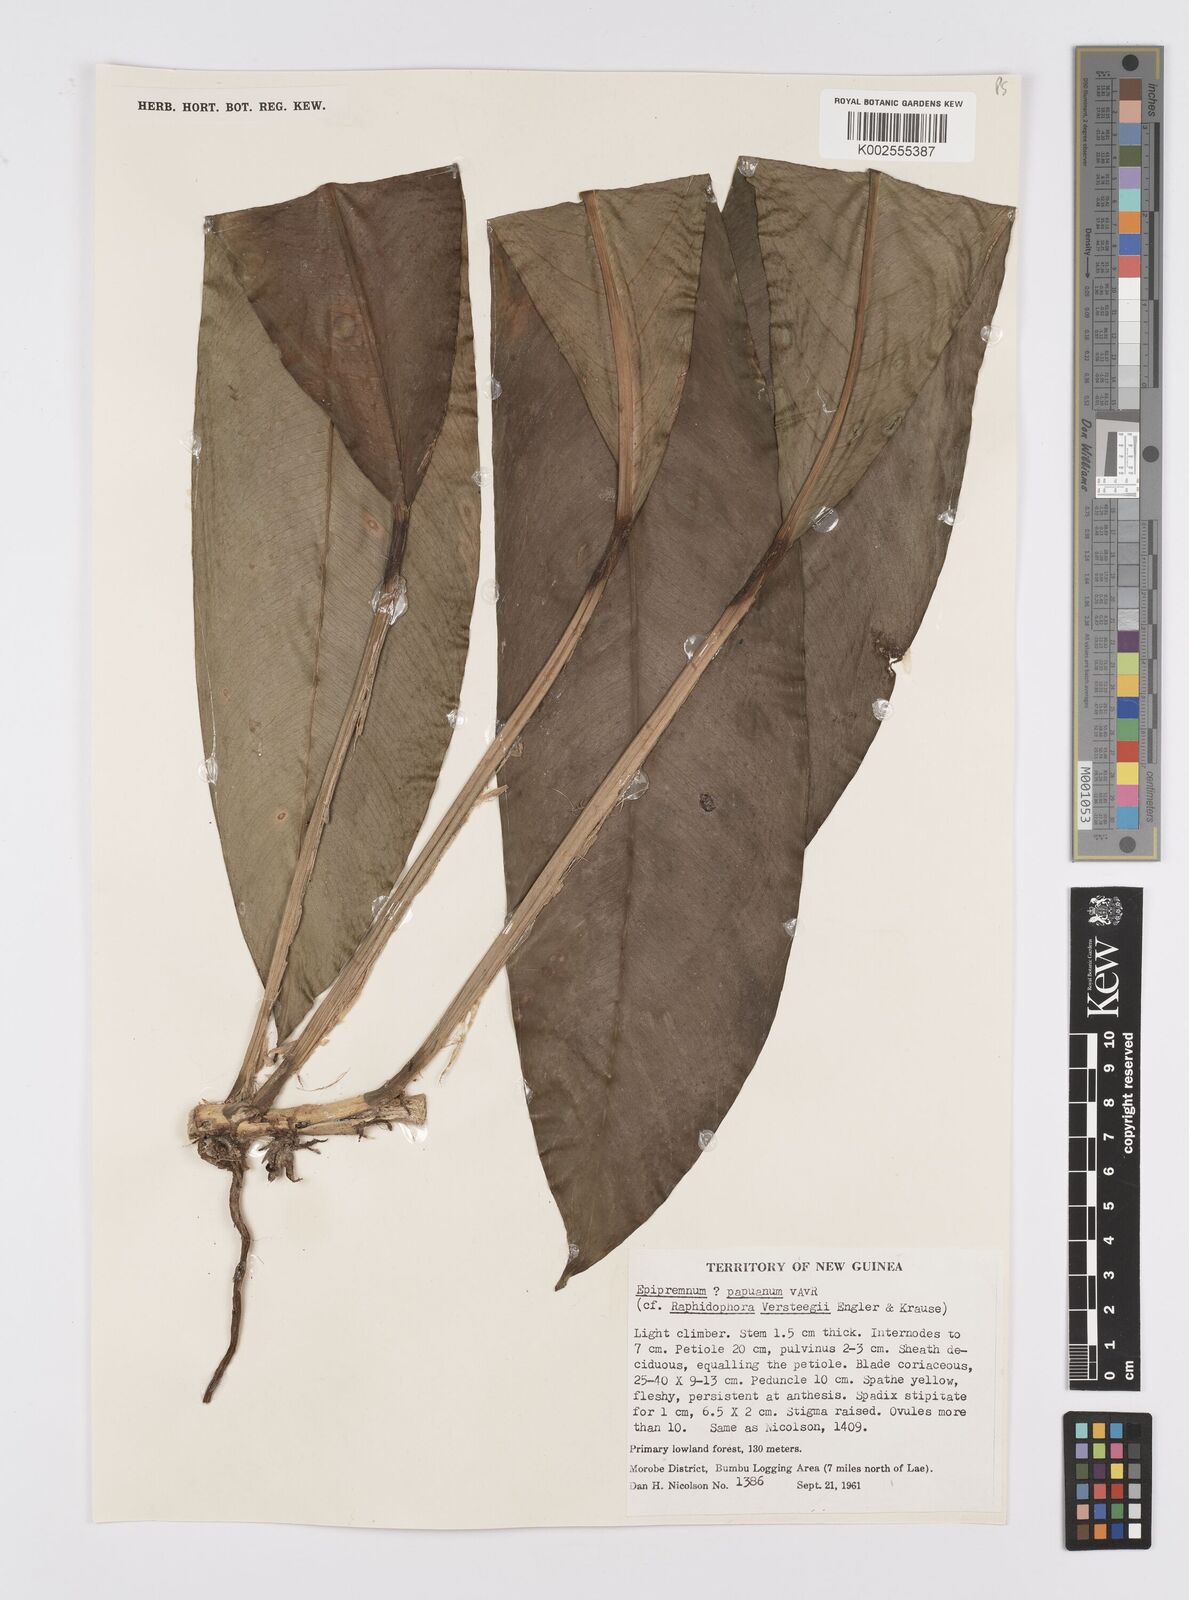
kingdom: Plantae
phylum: Tracheophyta
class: Liliopsida
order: Alismatales
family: Araceae
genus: Epipremnum
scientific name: Epipremnum papuanum
